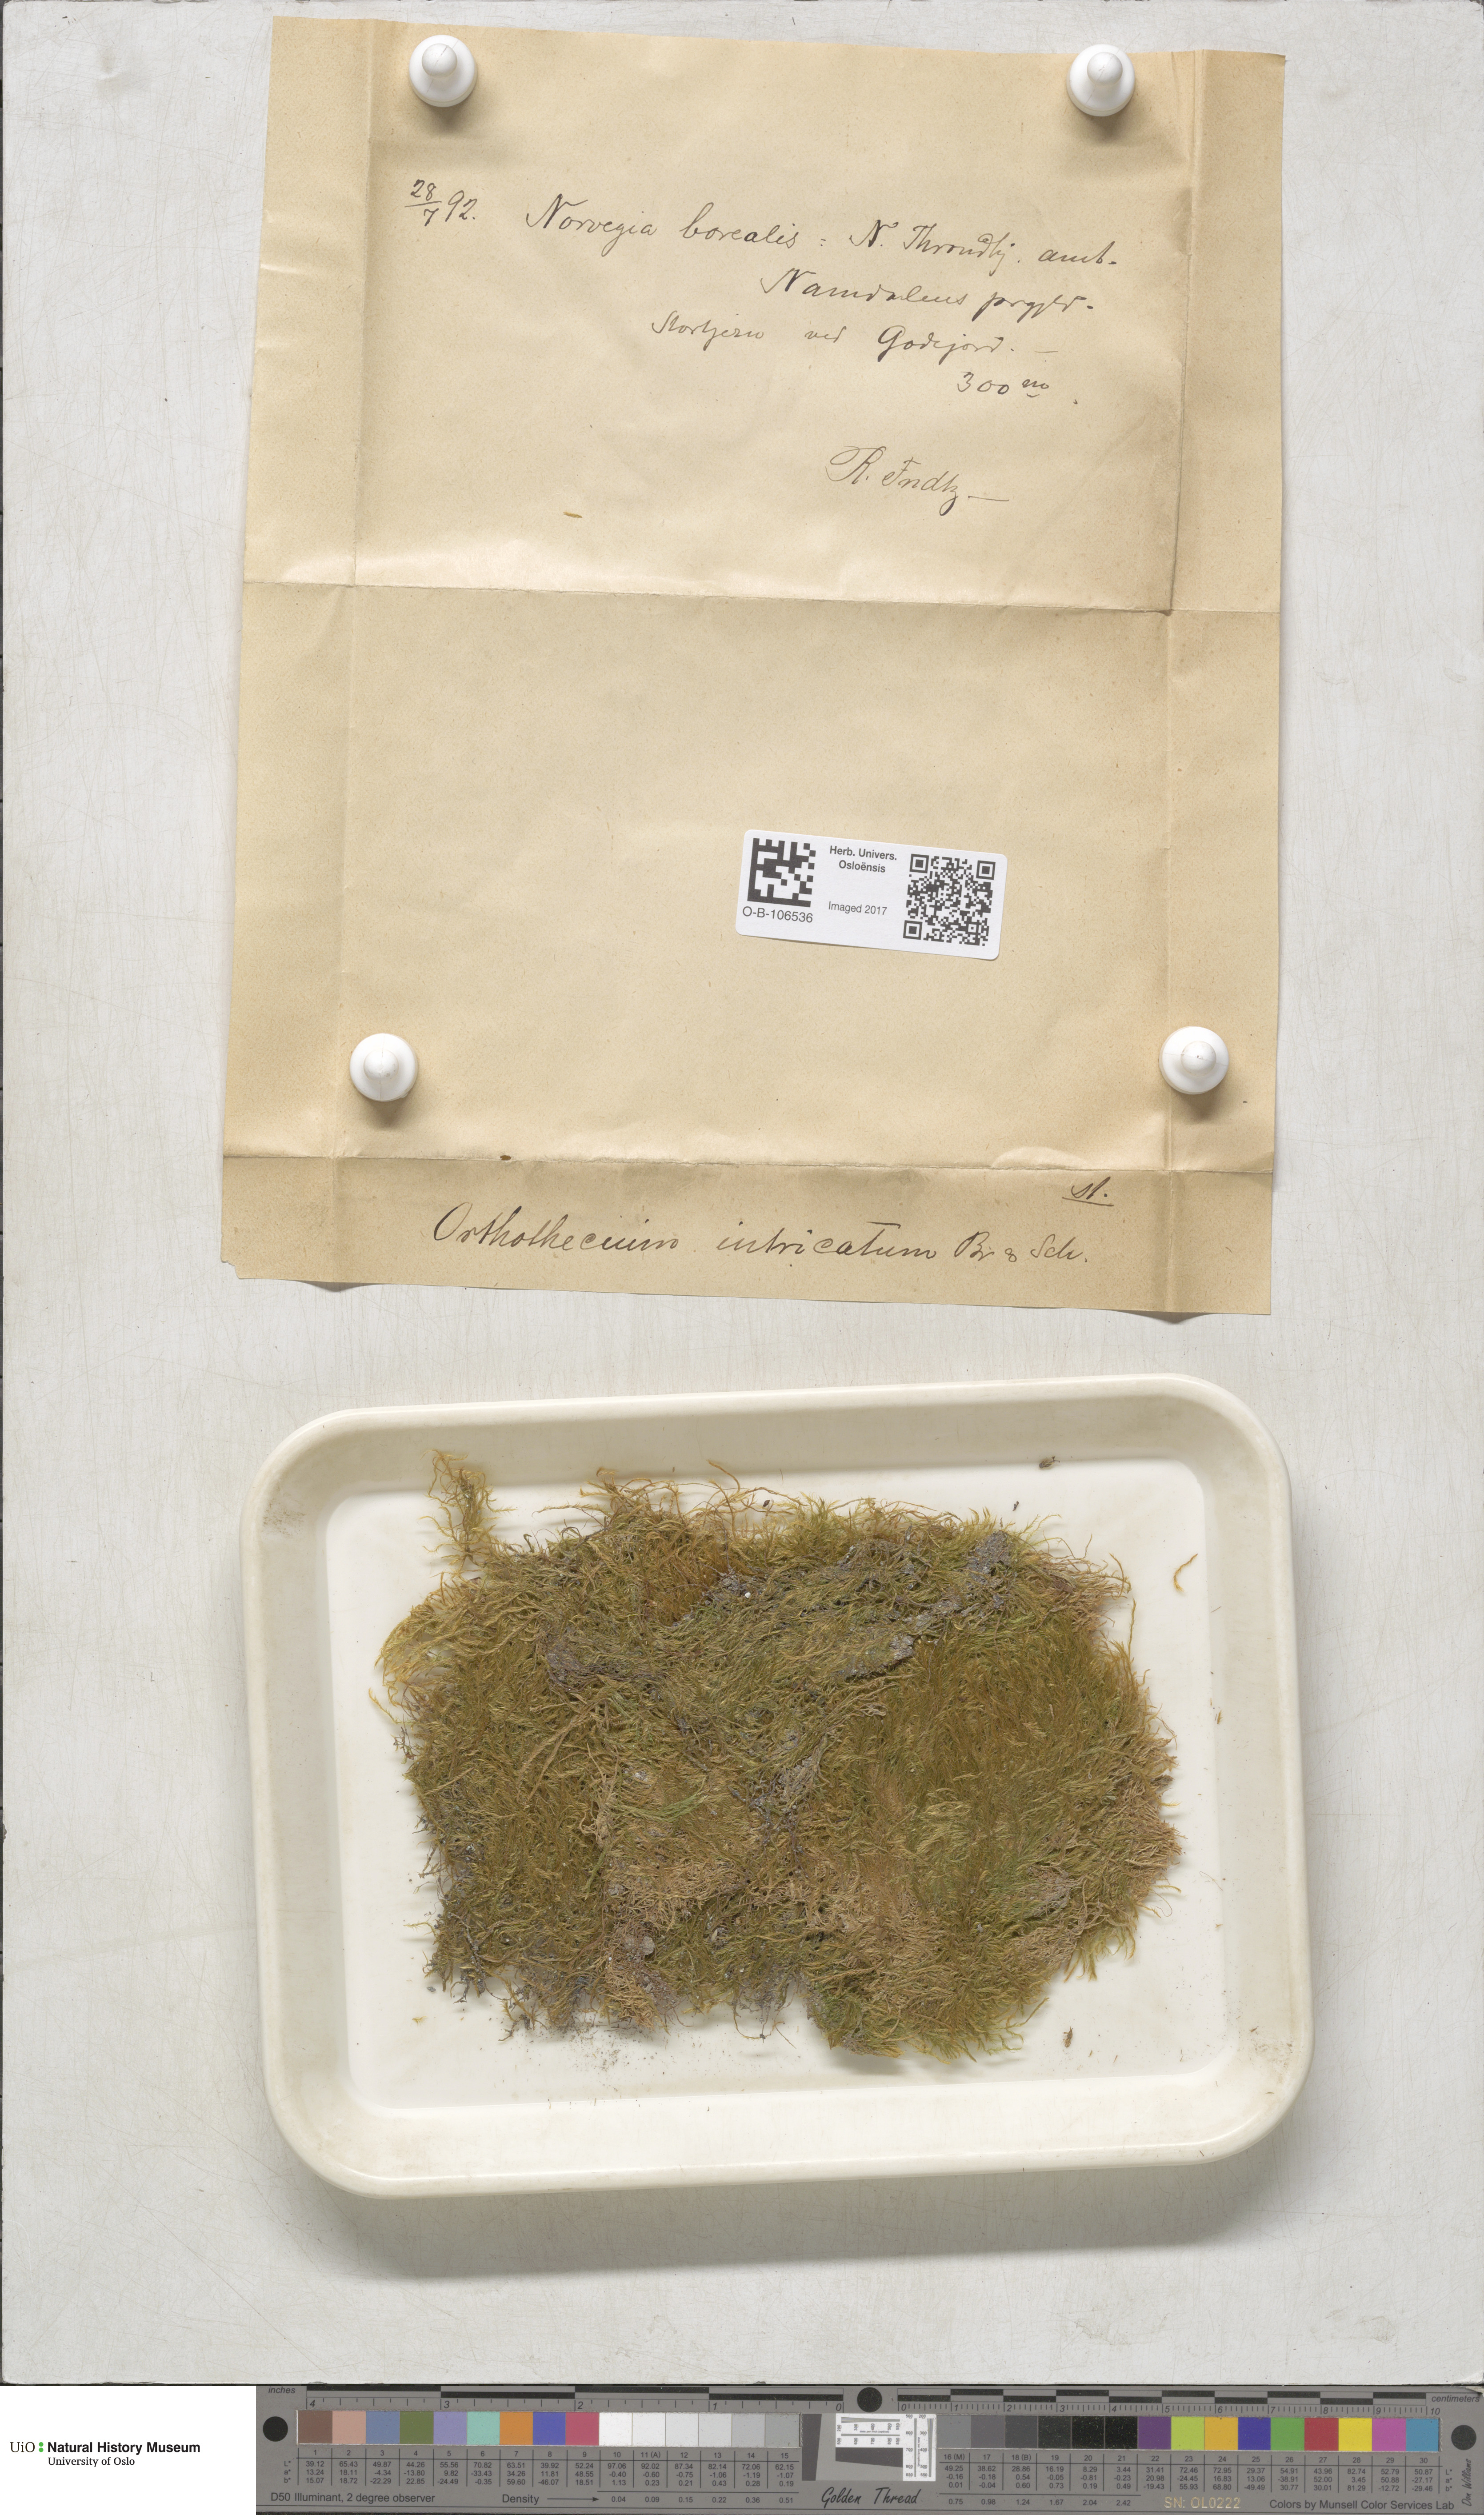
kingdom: Plantae
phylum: Bryophyta
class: Bryopsida
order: Hypnales
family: Plagiotheciaceae
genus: Orthothecium
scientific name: Orthothecium intricatum
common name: Fine-leaved erect-capsule moss
